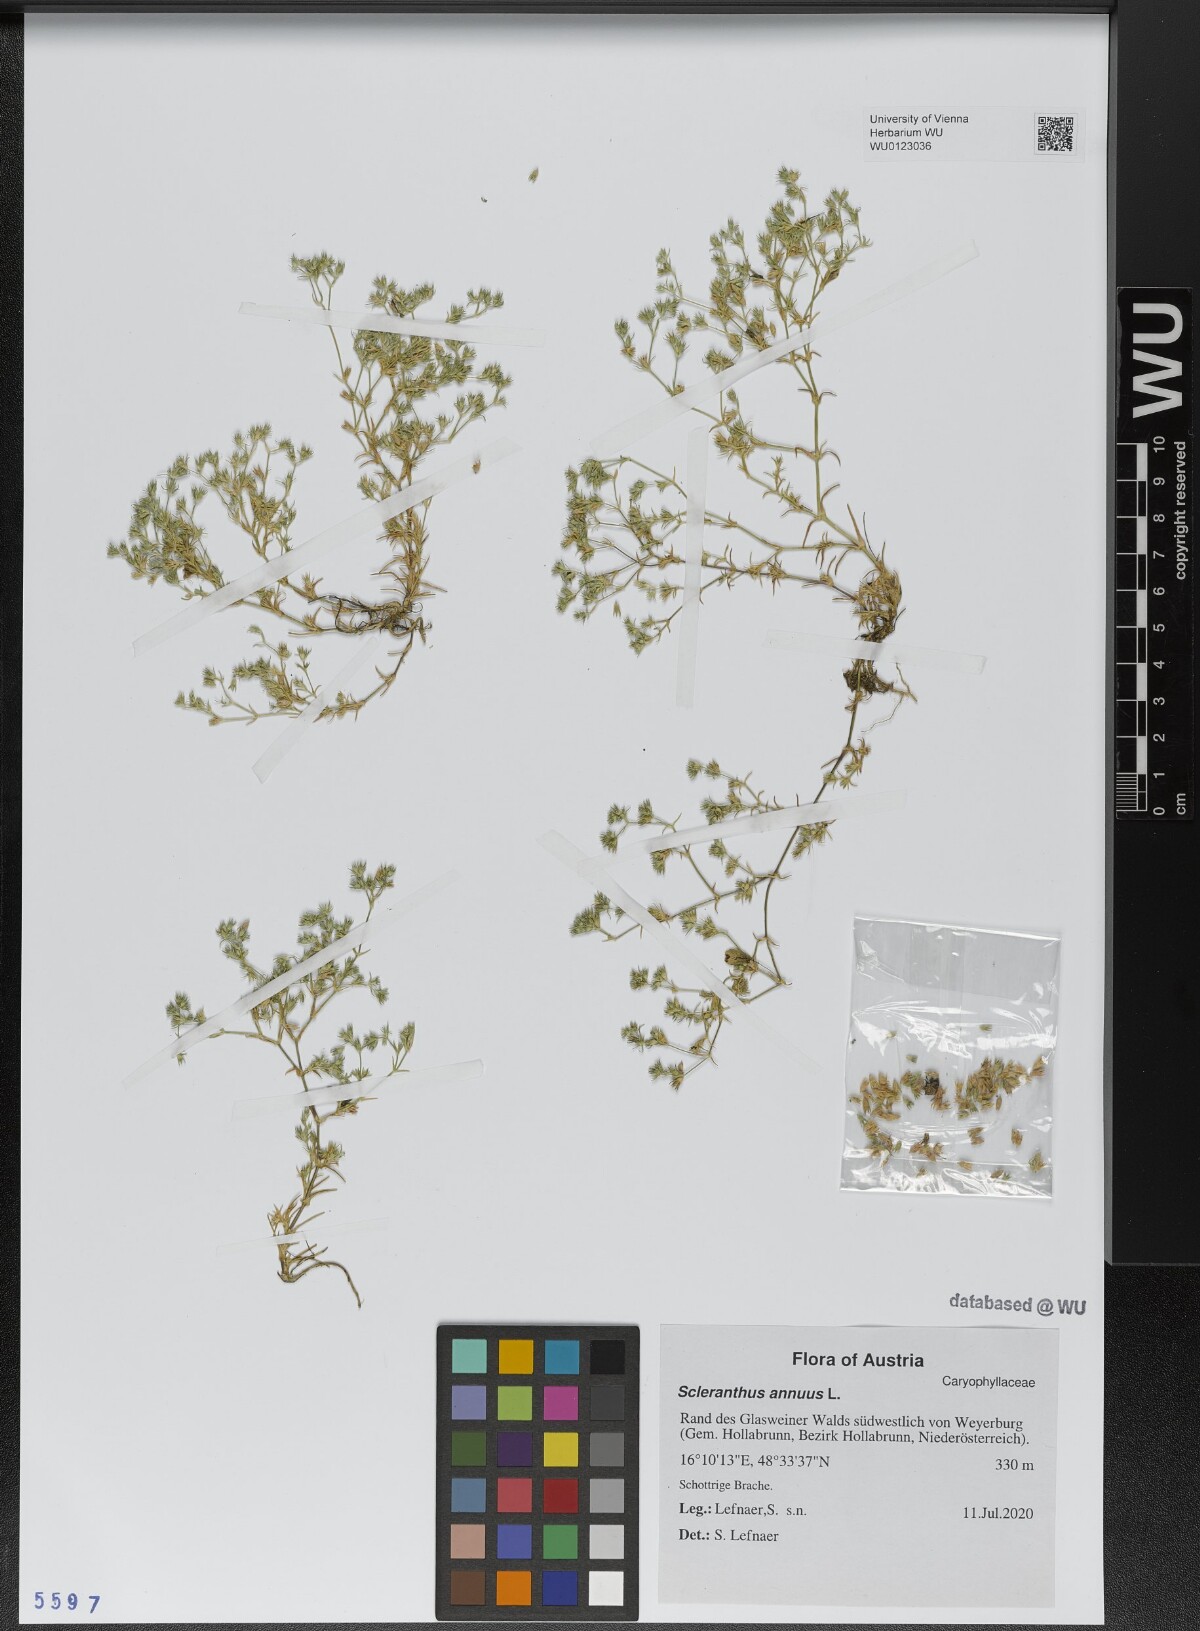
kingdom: Plantae
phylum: Tracheophyta
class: Magnoliopsida
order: Caryophyllales
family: Caryophyllaceae
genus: Scleranthus
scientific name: Scleranthus annuus
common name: Annual knawel
